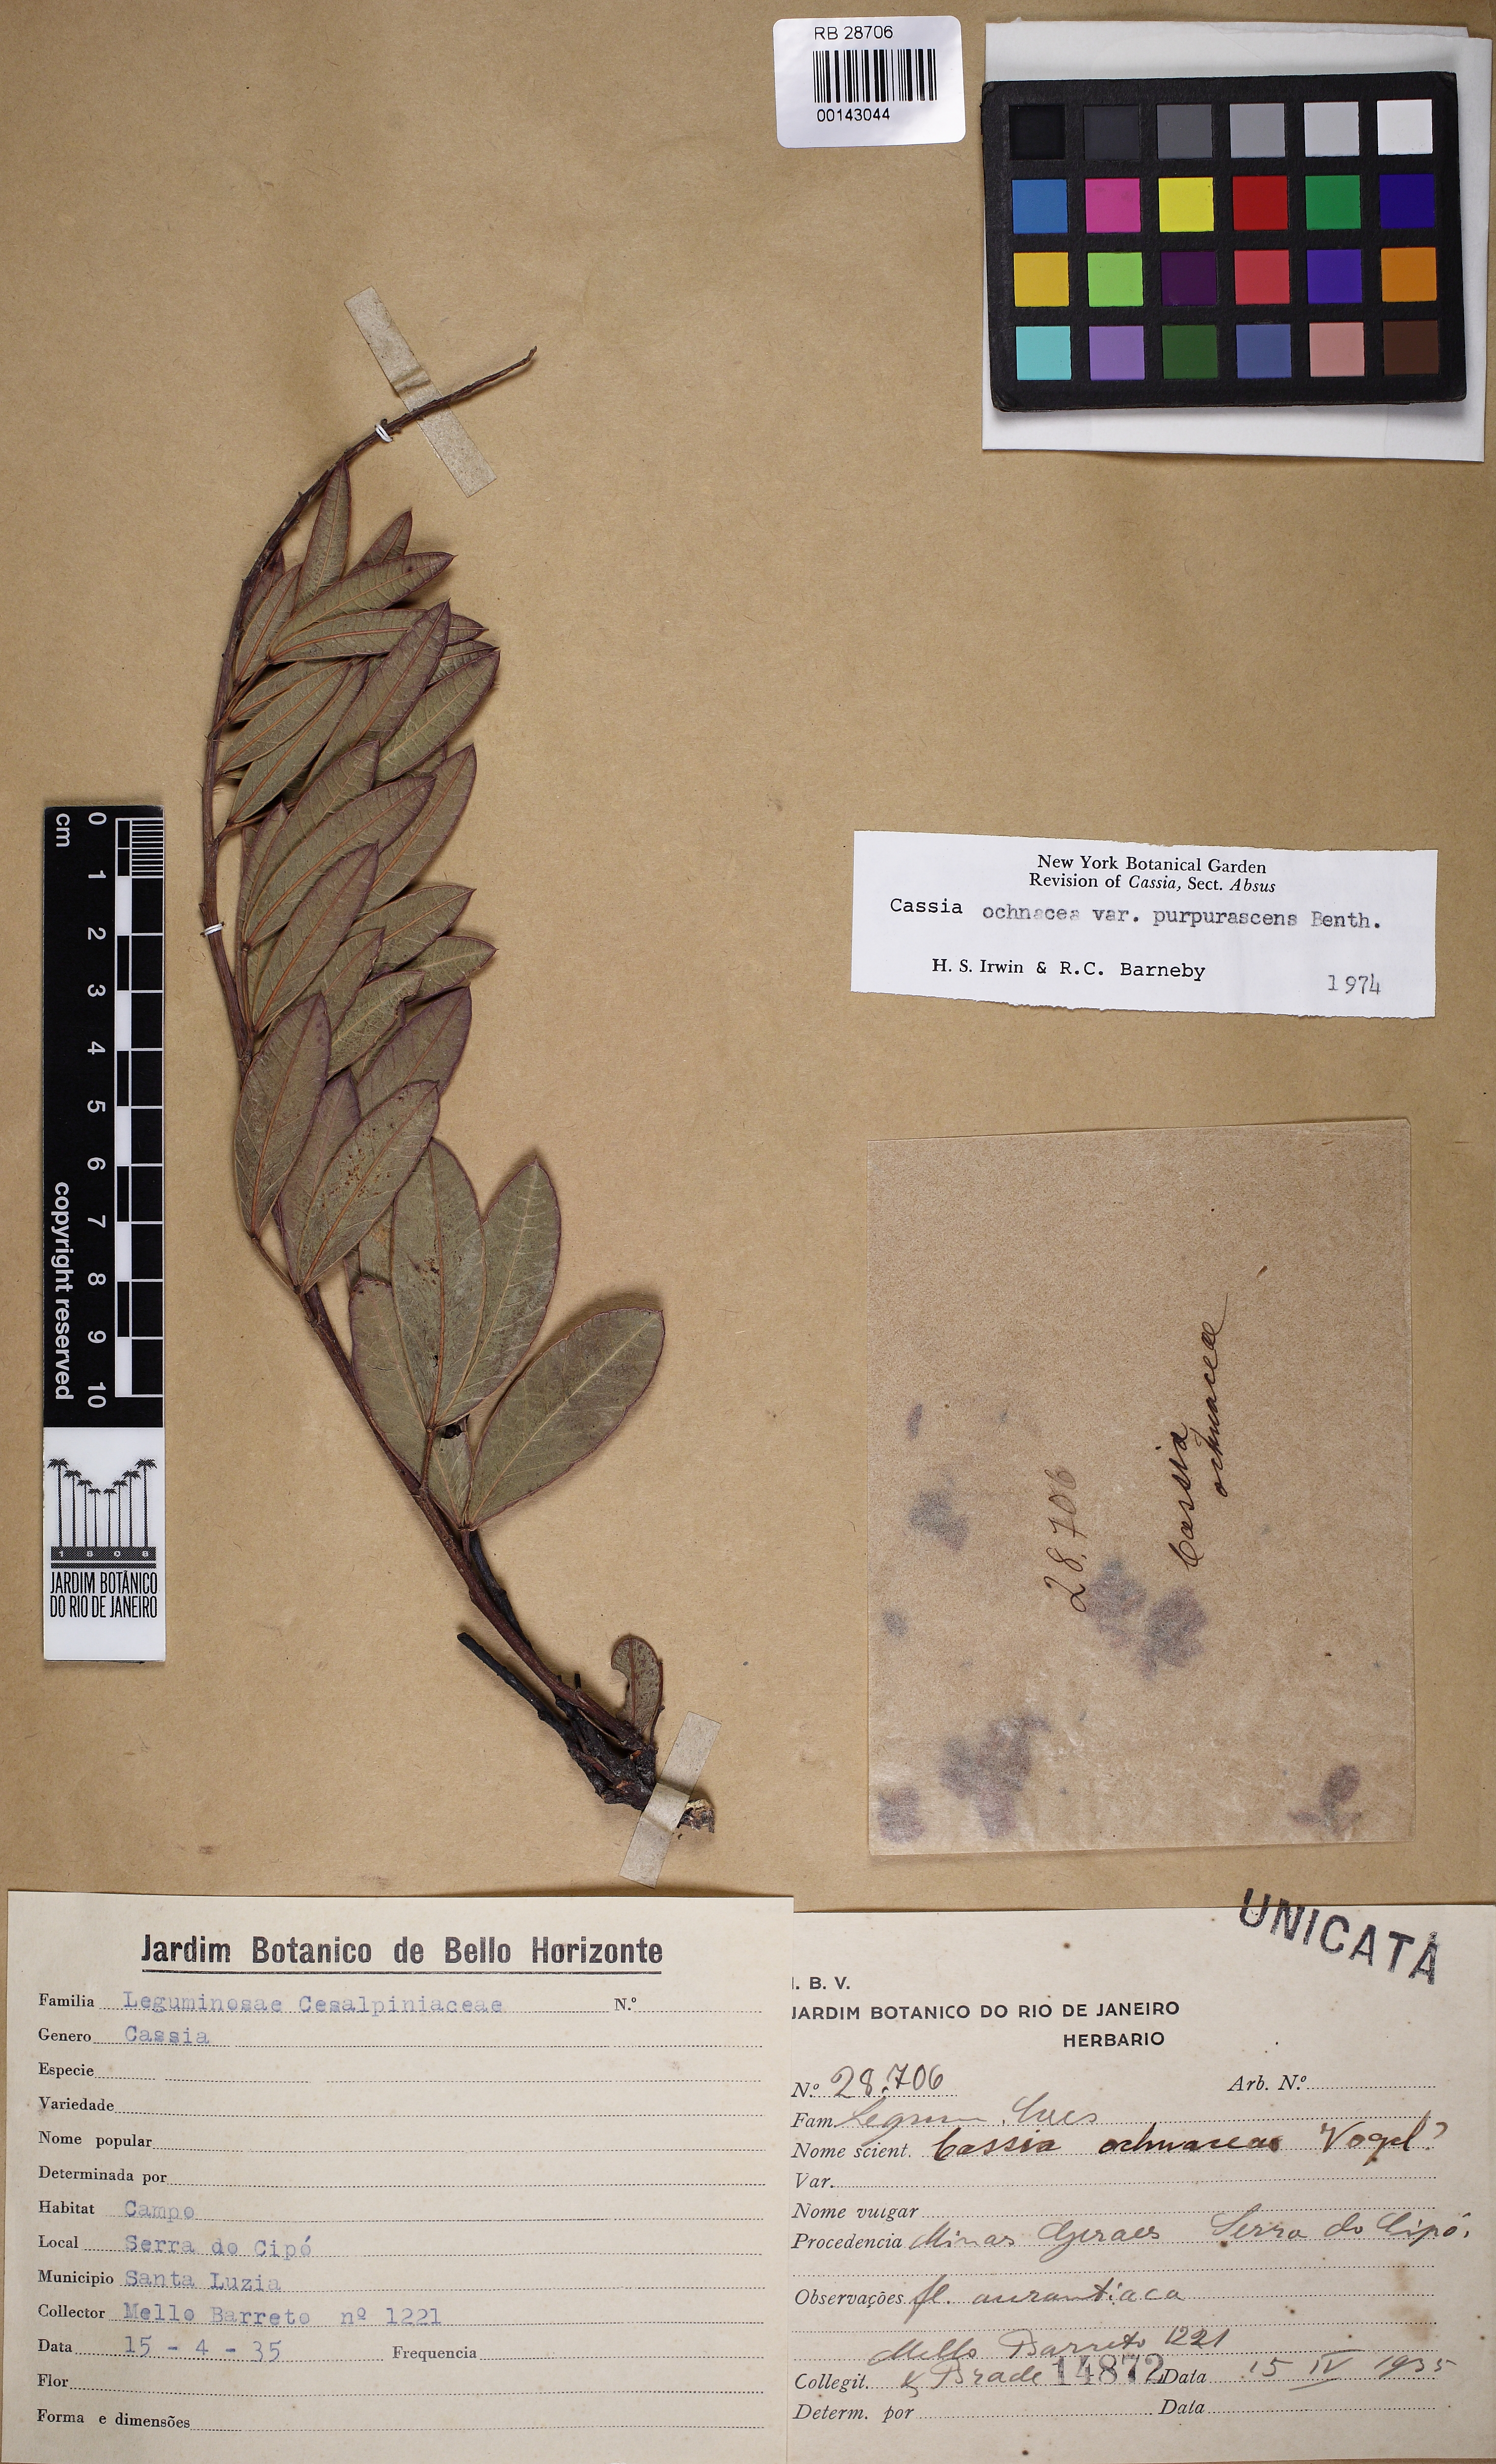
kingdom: Plantae
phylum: Tracheophyta
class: Magnoliopsida
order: Fabales
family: Fabaceae
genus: Chamaecrista
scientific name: Chamaecrista ochnacea
